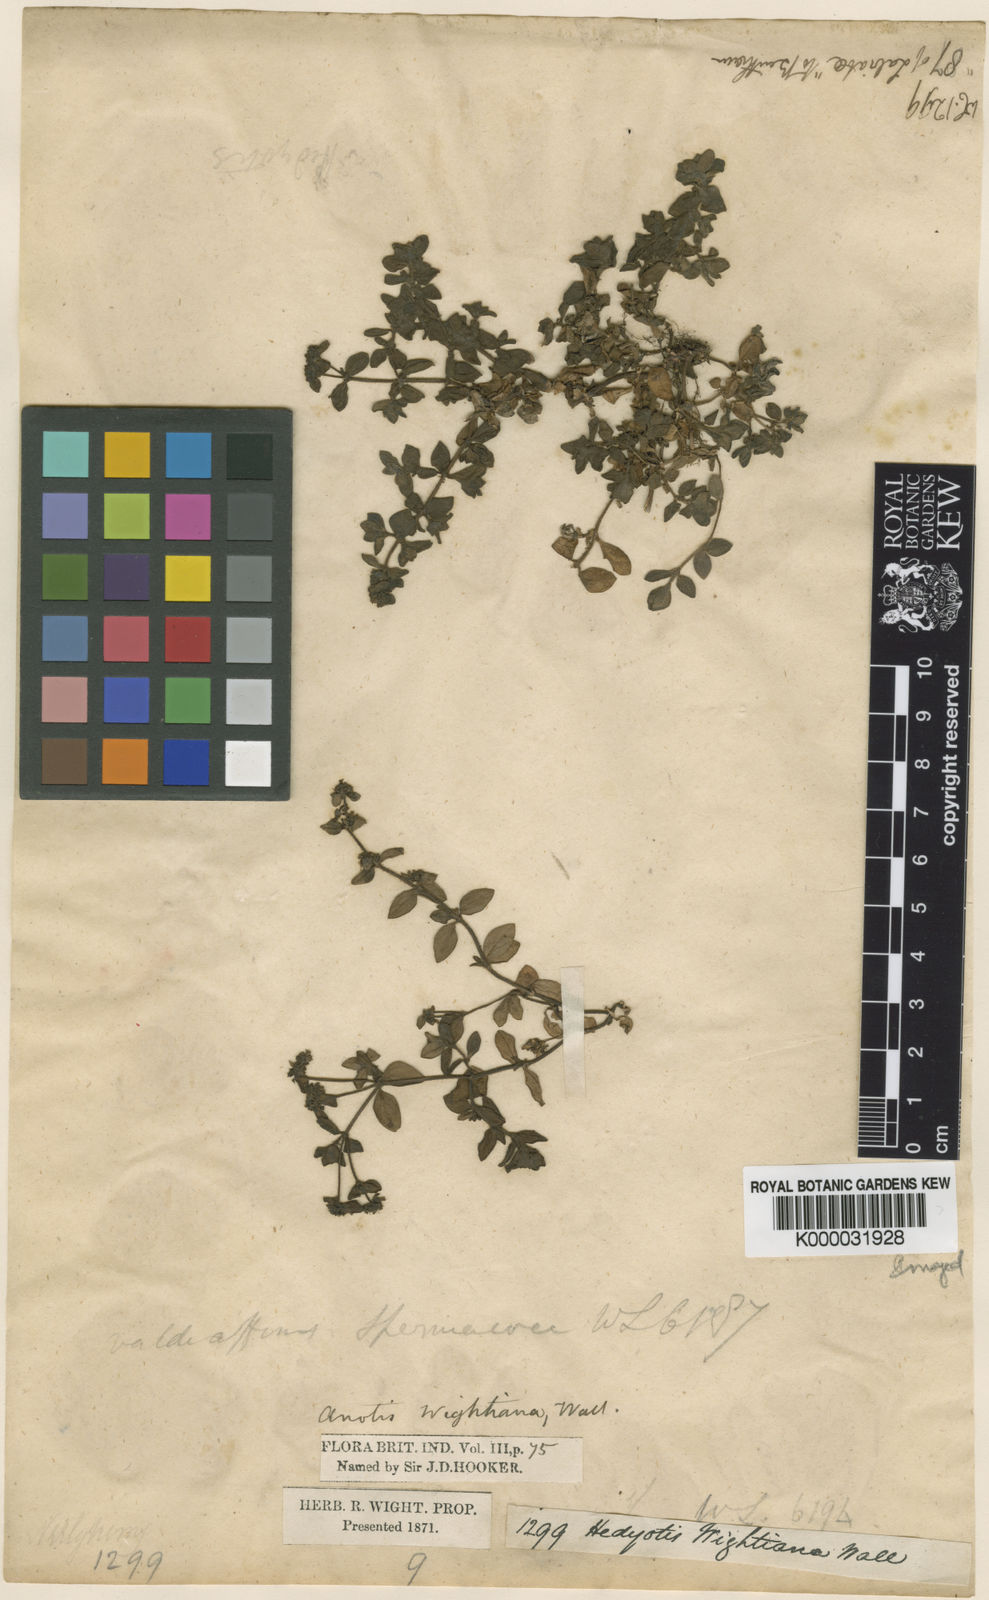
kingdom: Plantae
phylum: Tracheophyta
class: Magnoliopsida
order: Gentianales
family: Rubiaceae
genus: Neanotis
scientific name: Neanotis wightiana
